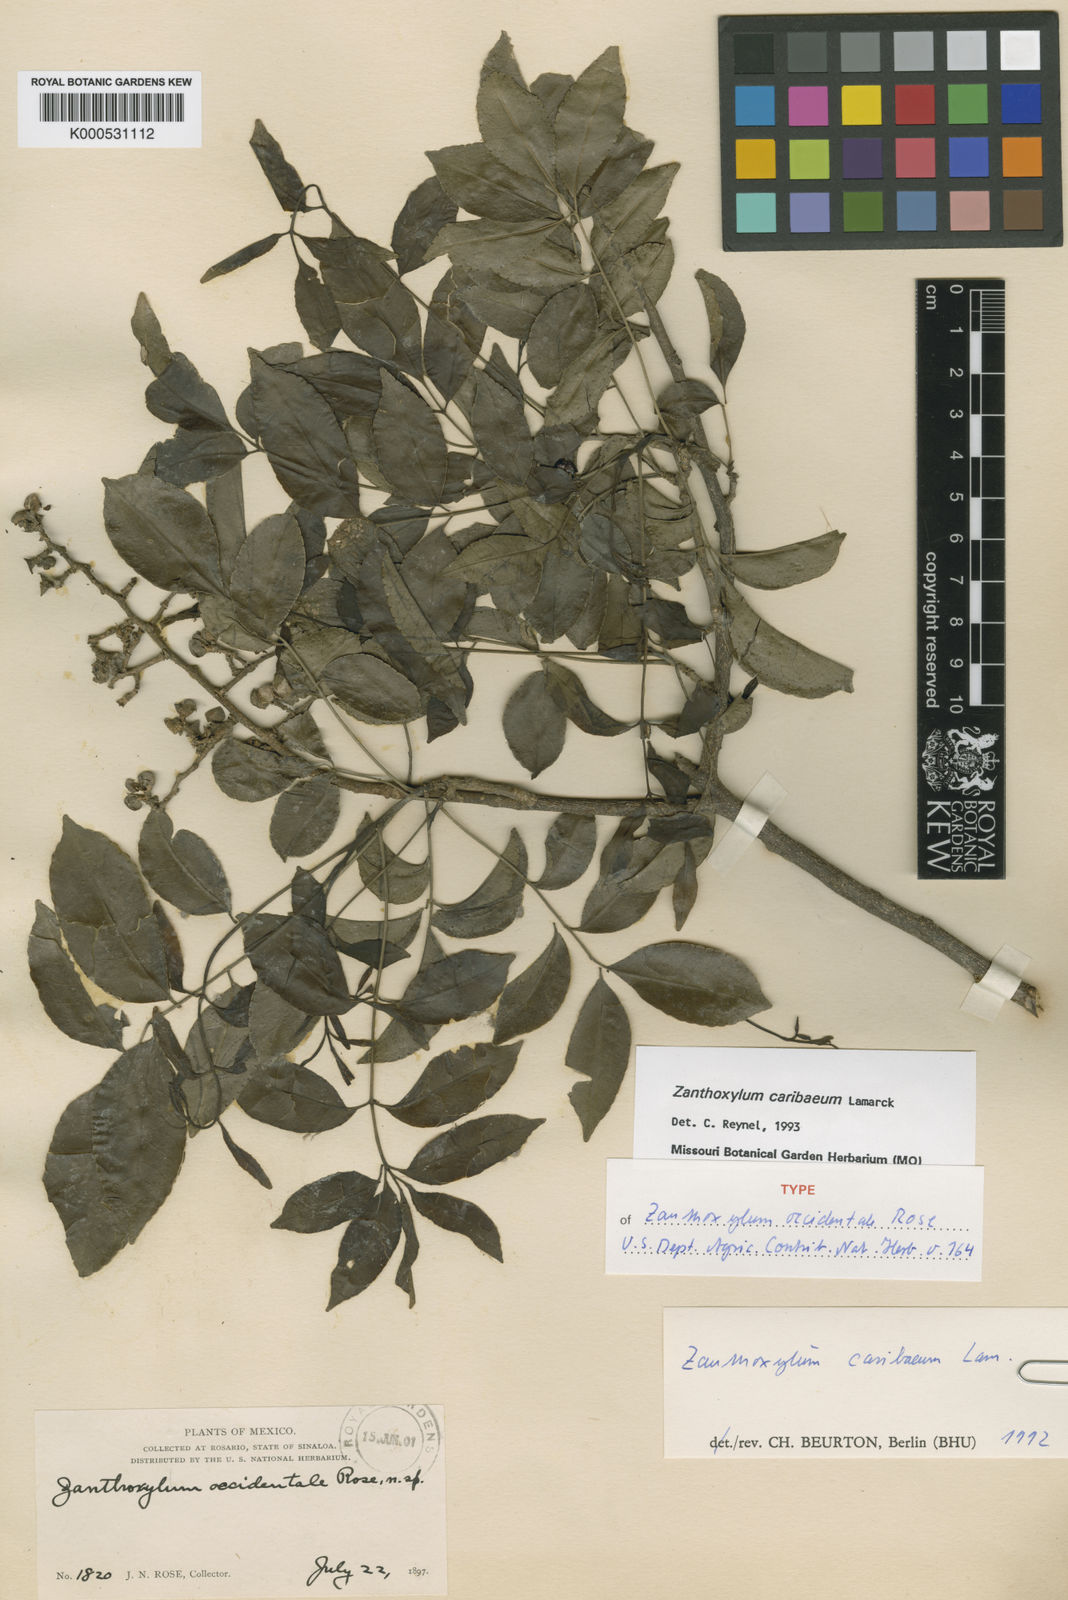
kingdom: Plantae
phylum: Tracheophyta
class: Magnoliopsida
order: Sapindales
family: Rutaceae
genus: Zanthoxylum
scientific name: Zanthoxylum caribaeum
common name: Prickly yellow
